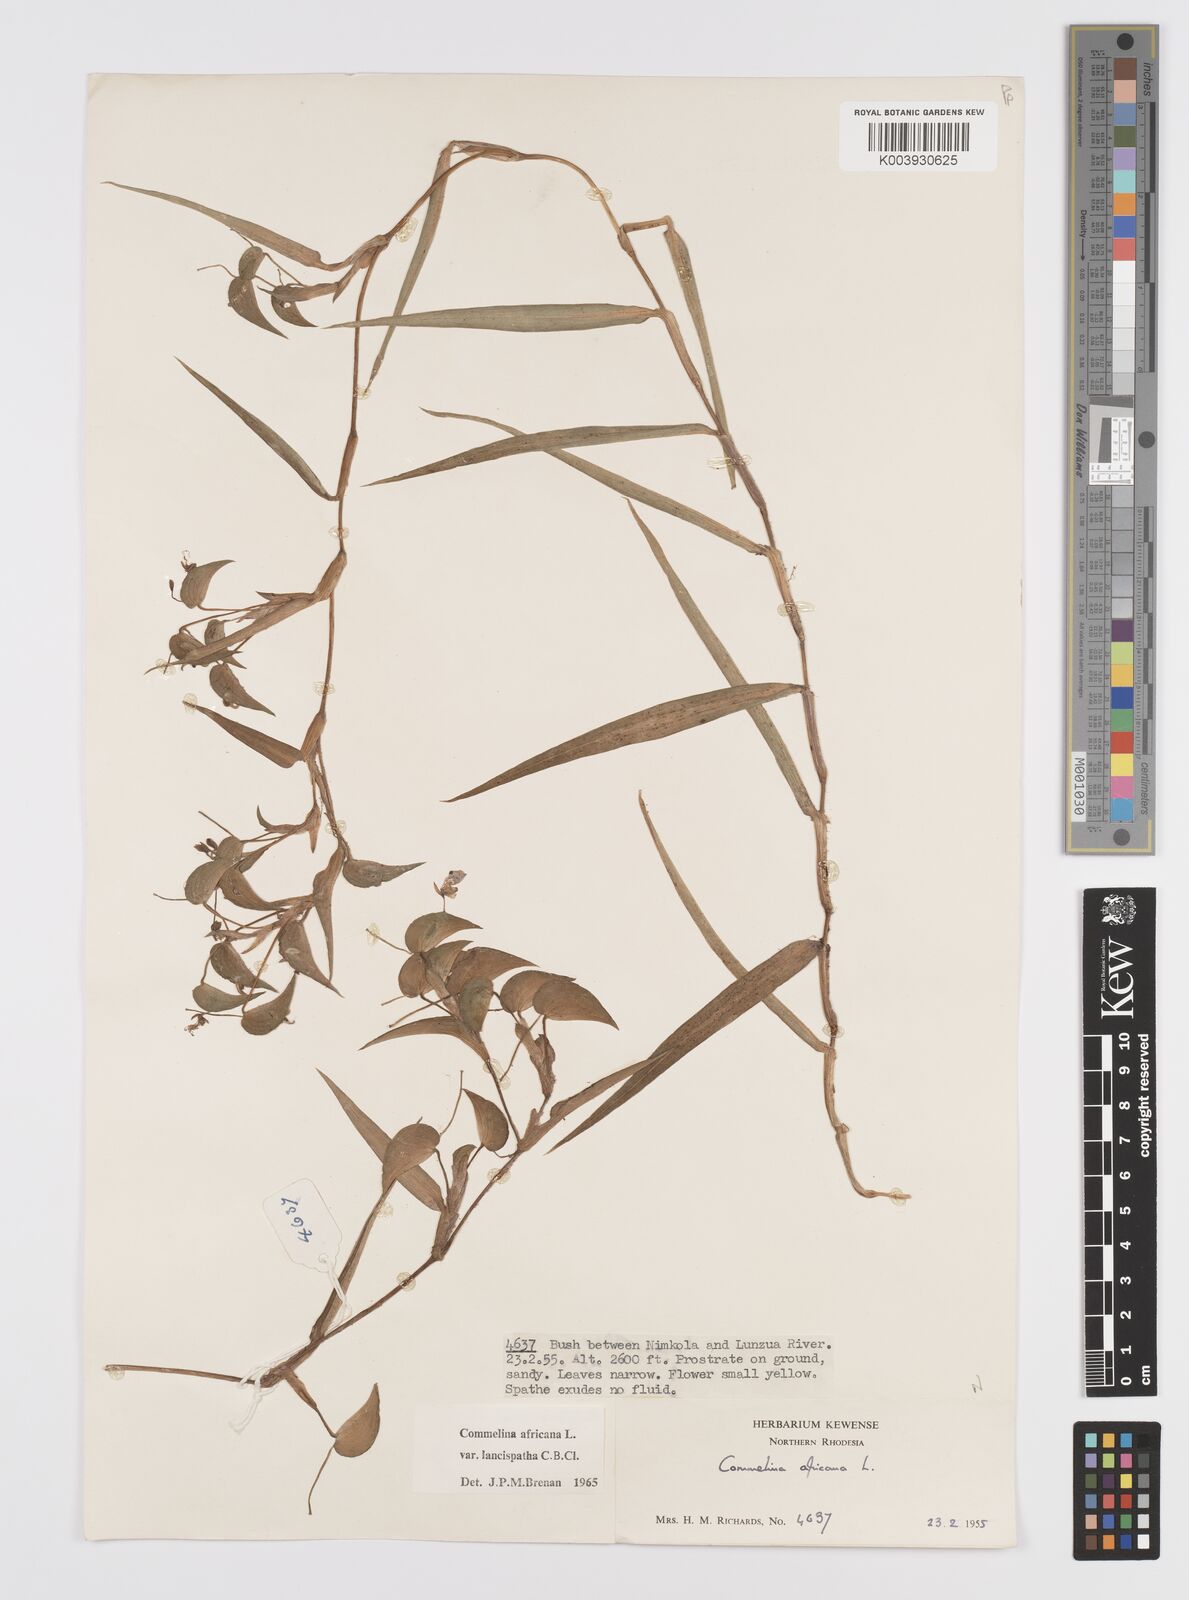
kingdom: Plantae
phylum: Tracheophyta
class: Liliopsida
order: Commelinales
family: Commelinaceae
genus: Commelina
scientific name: Commelina africana
